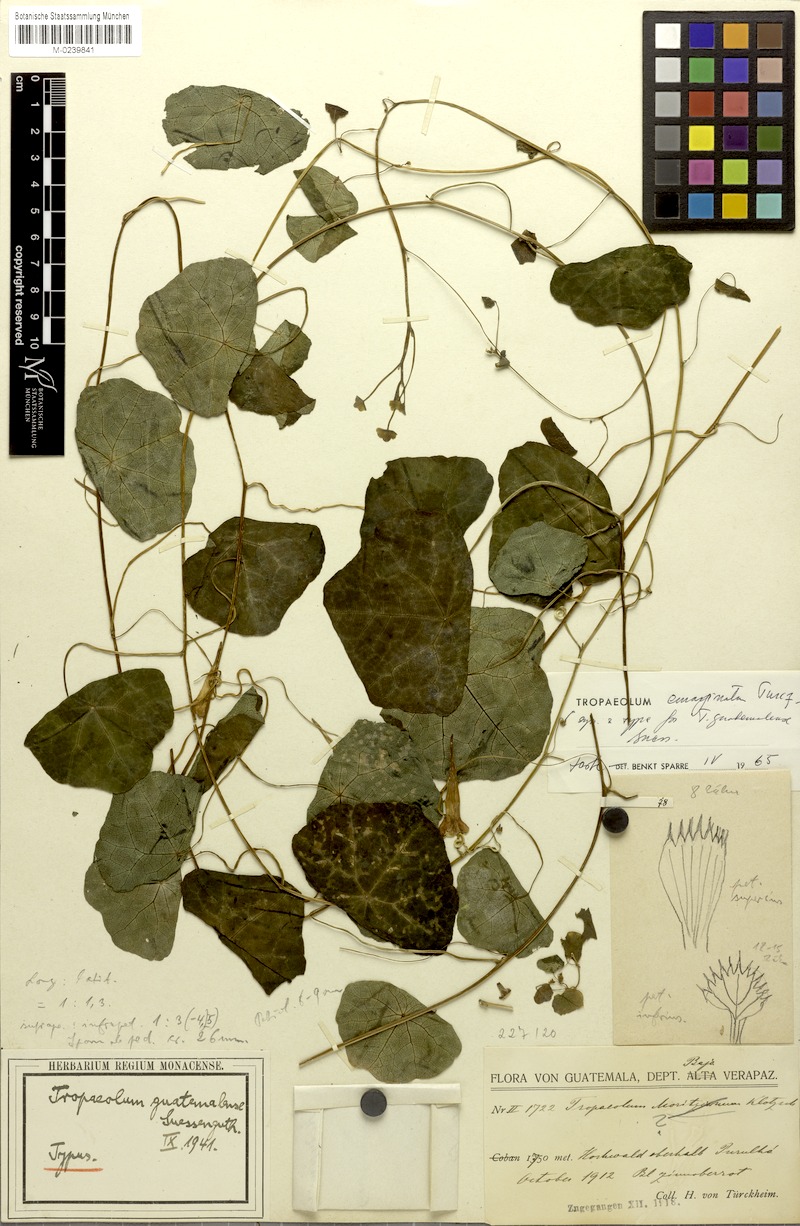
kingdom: Plantae
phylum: Tracheophyta
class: Magnoliopsida
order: Brassicales
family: Tropaeolaceae
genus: Tropaeolum
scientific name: Tropaeolum emarginatum
